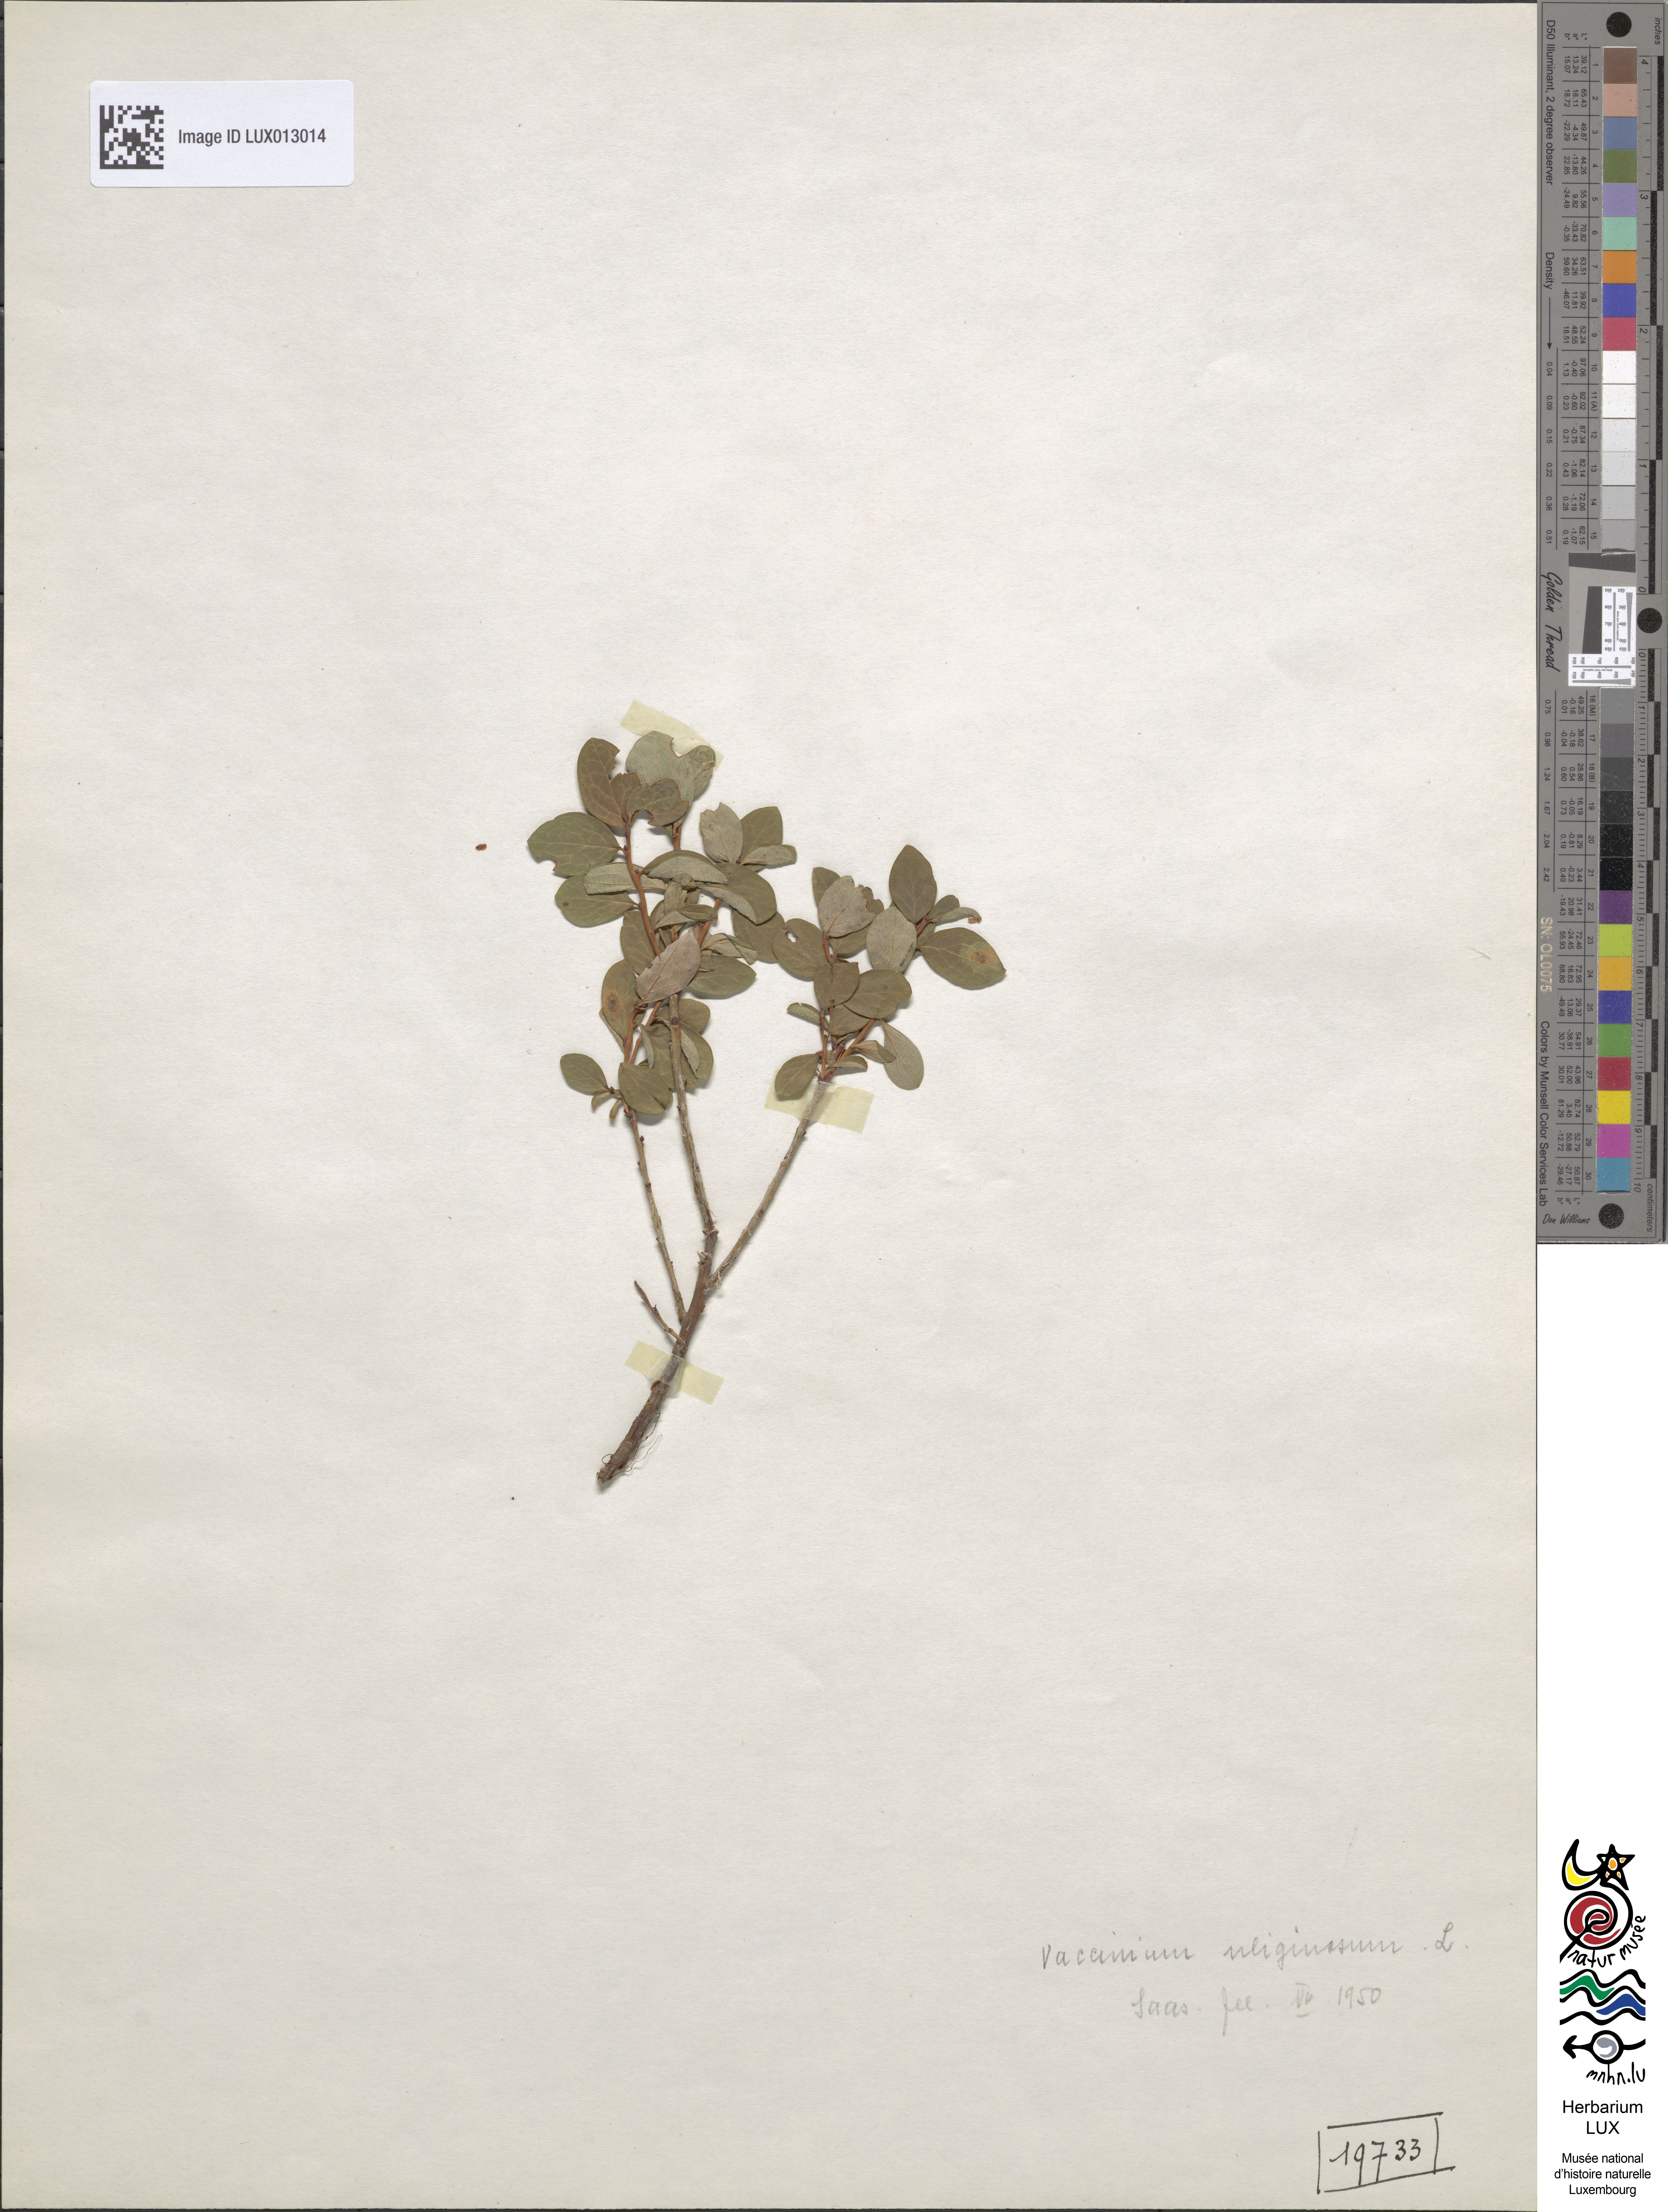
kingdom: Plantae
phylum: Tracheophyta
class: Magnoliopsida
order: Ericales
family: Ericaceae
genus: Vaccinium
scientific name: Vaccinium uliginosum
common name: Bog bilberry
